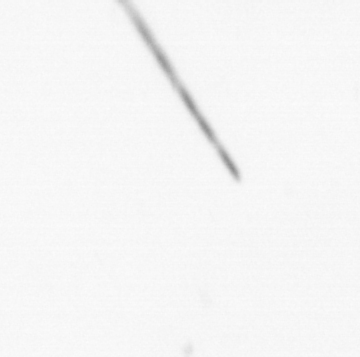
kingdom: Chromista
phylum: Ochrophyta
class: Bacillariophyceae
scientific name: Bacillariophyceae
